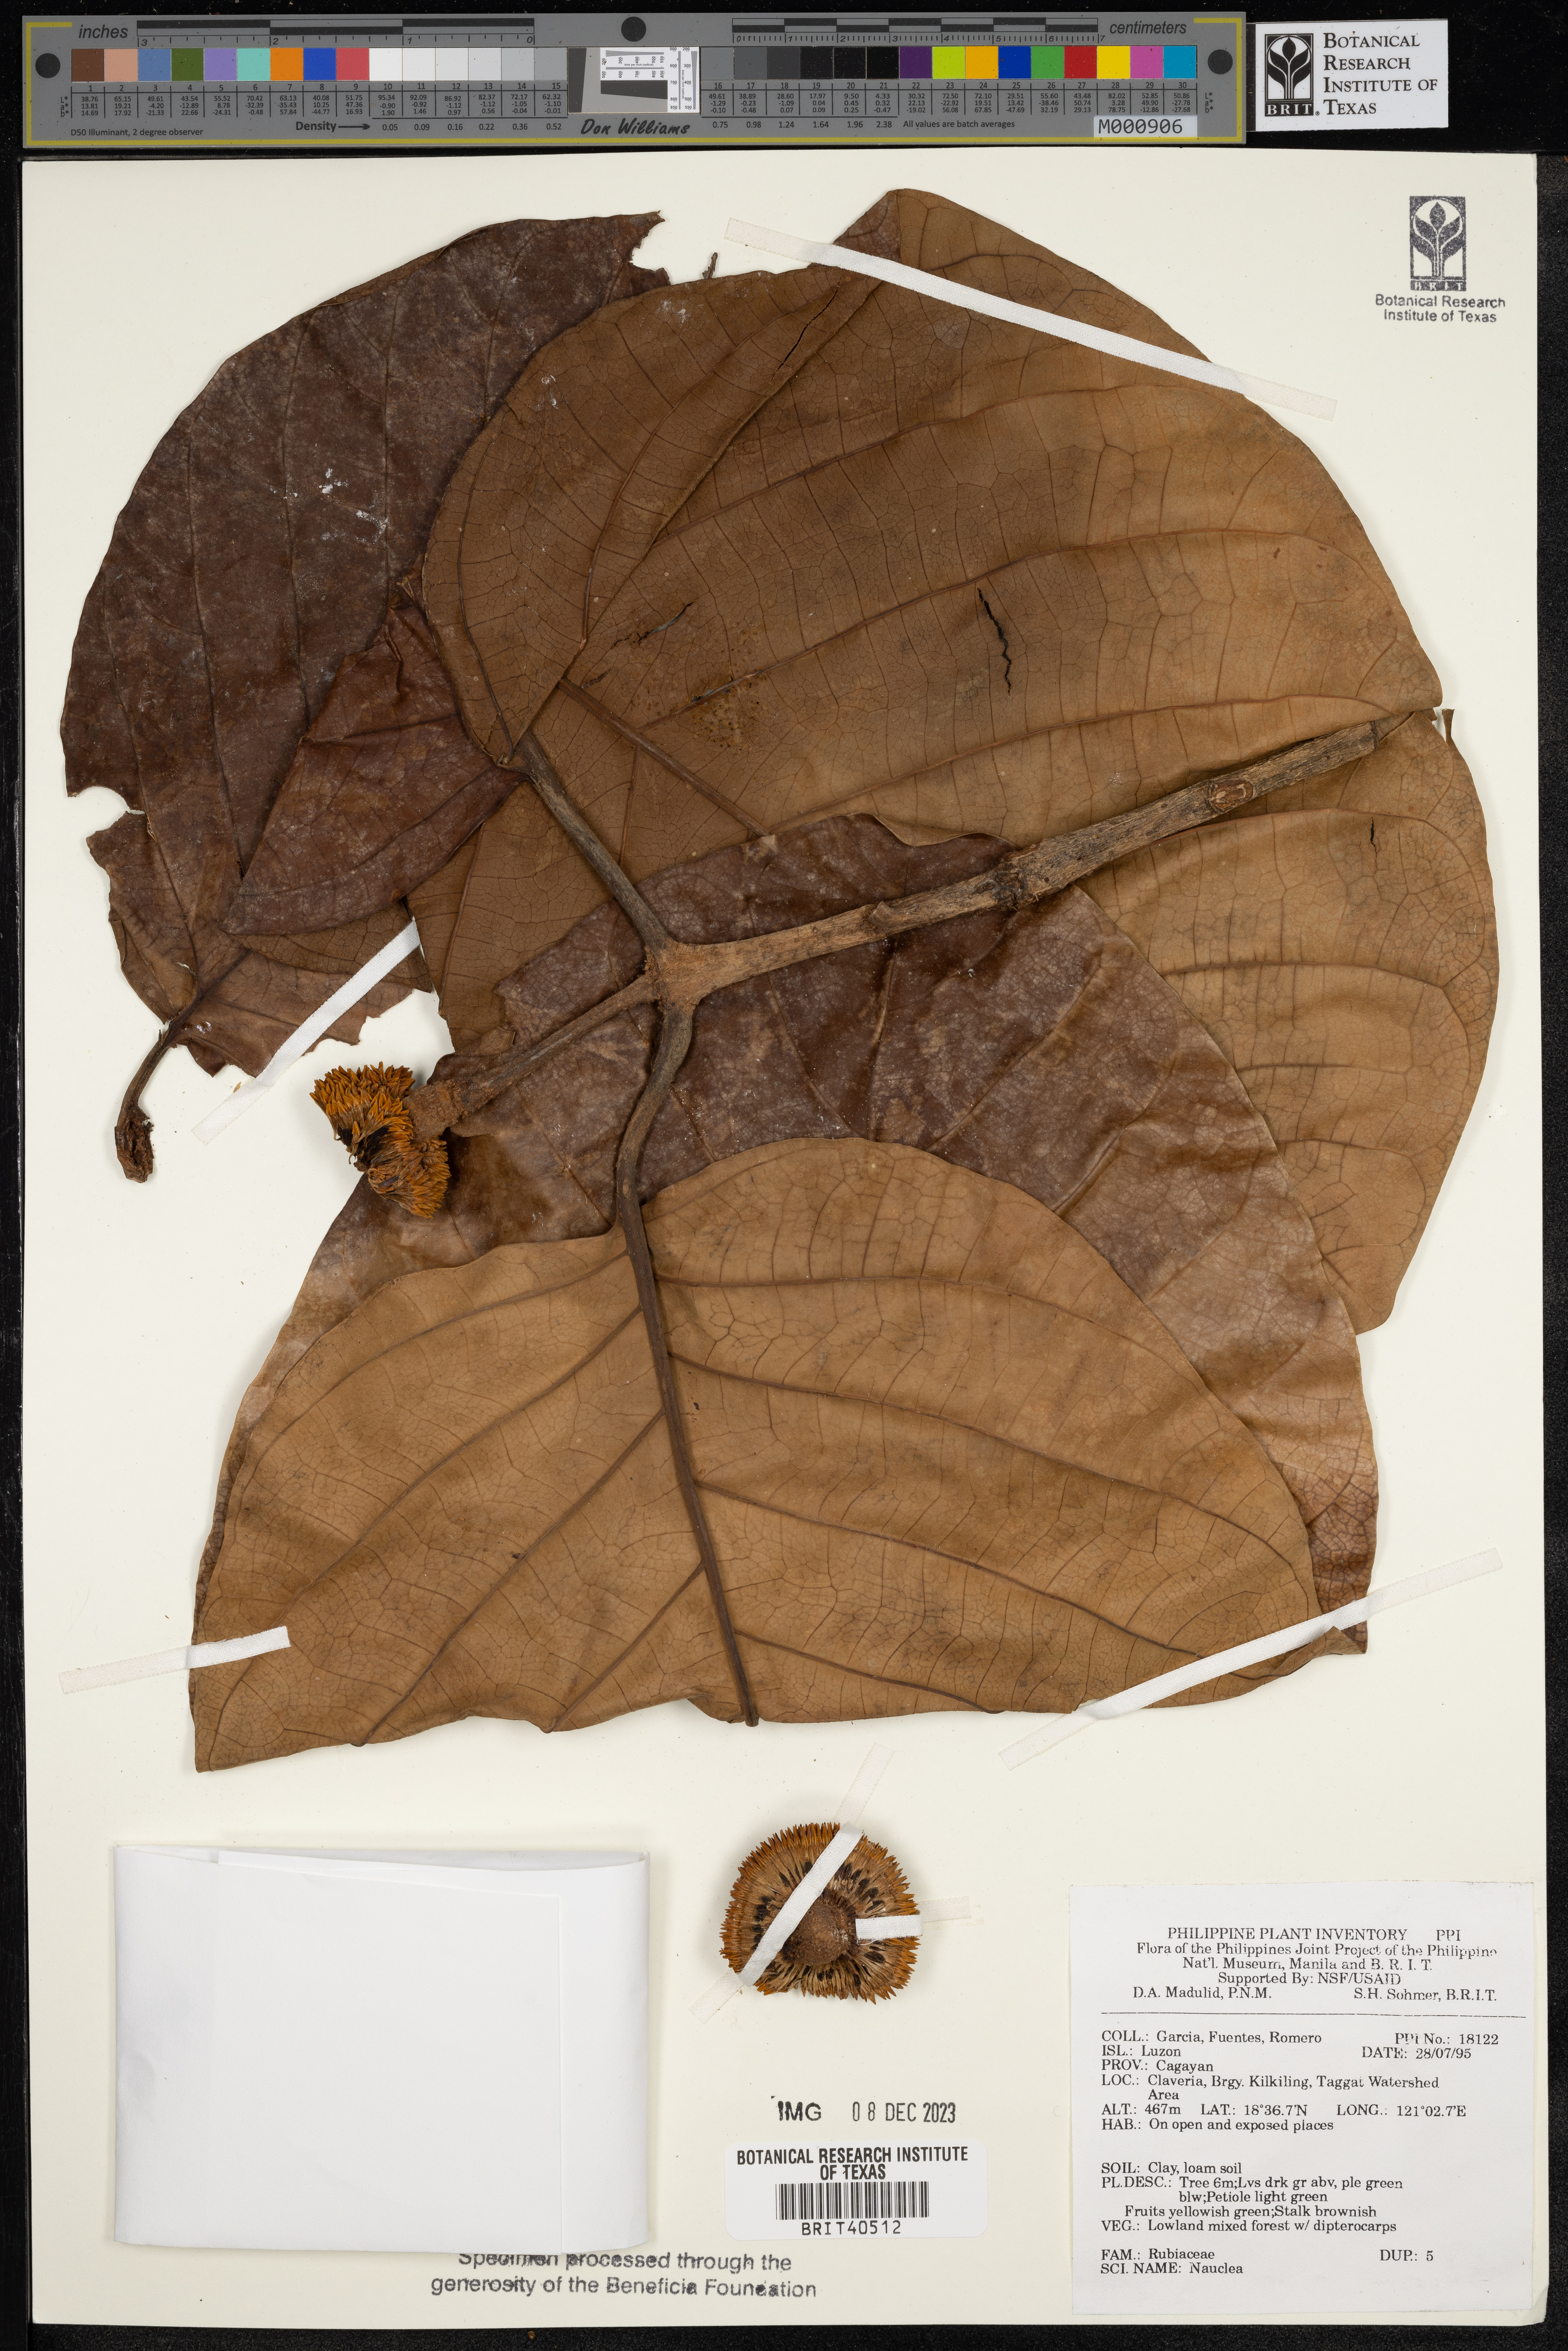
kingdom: Plantae
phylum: Tracheophyta
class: Magnoliopsida
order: Gentianales
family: Rubiaceae
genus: Nauclea
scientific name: Nauclea
